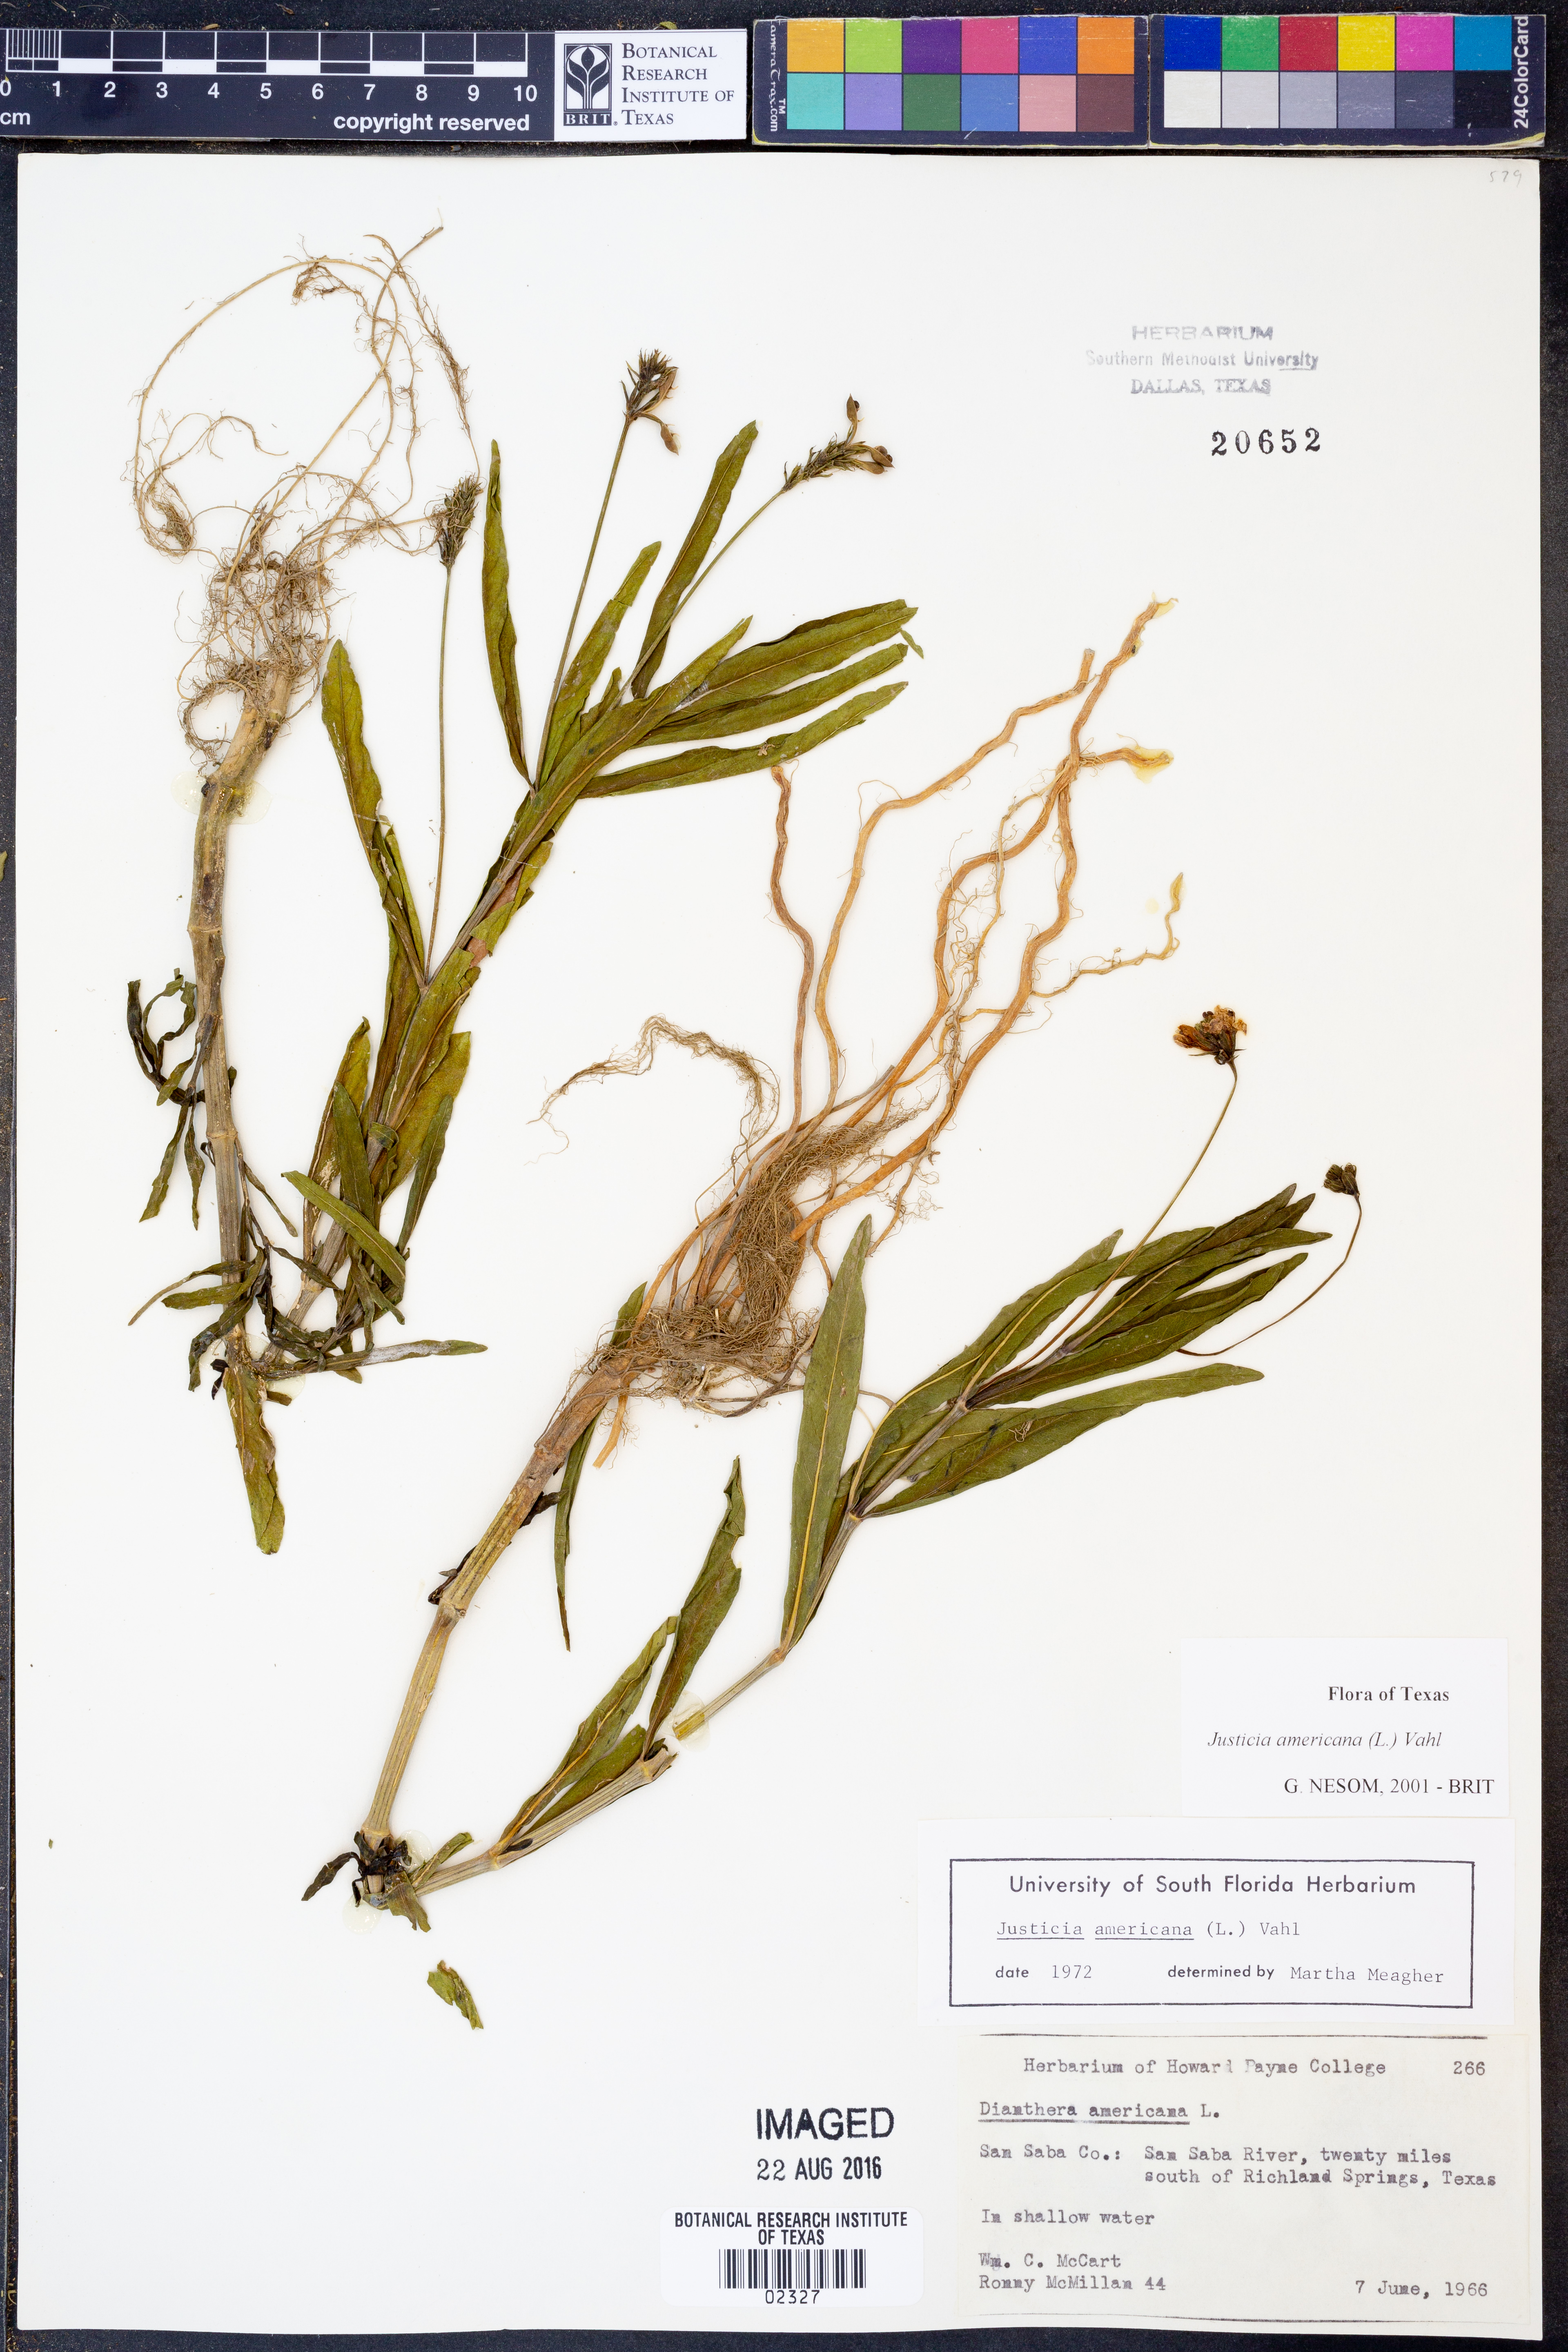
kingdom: Plantae
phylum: Tracheophyta
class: Magnoliopsida
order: Lamiales
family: Acanthaceae
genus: Dianthera
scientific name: Dianthera americana
